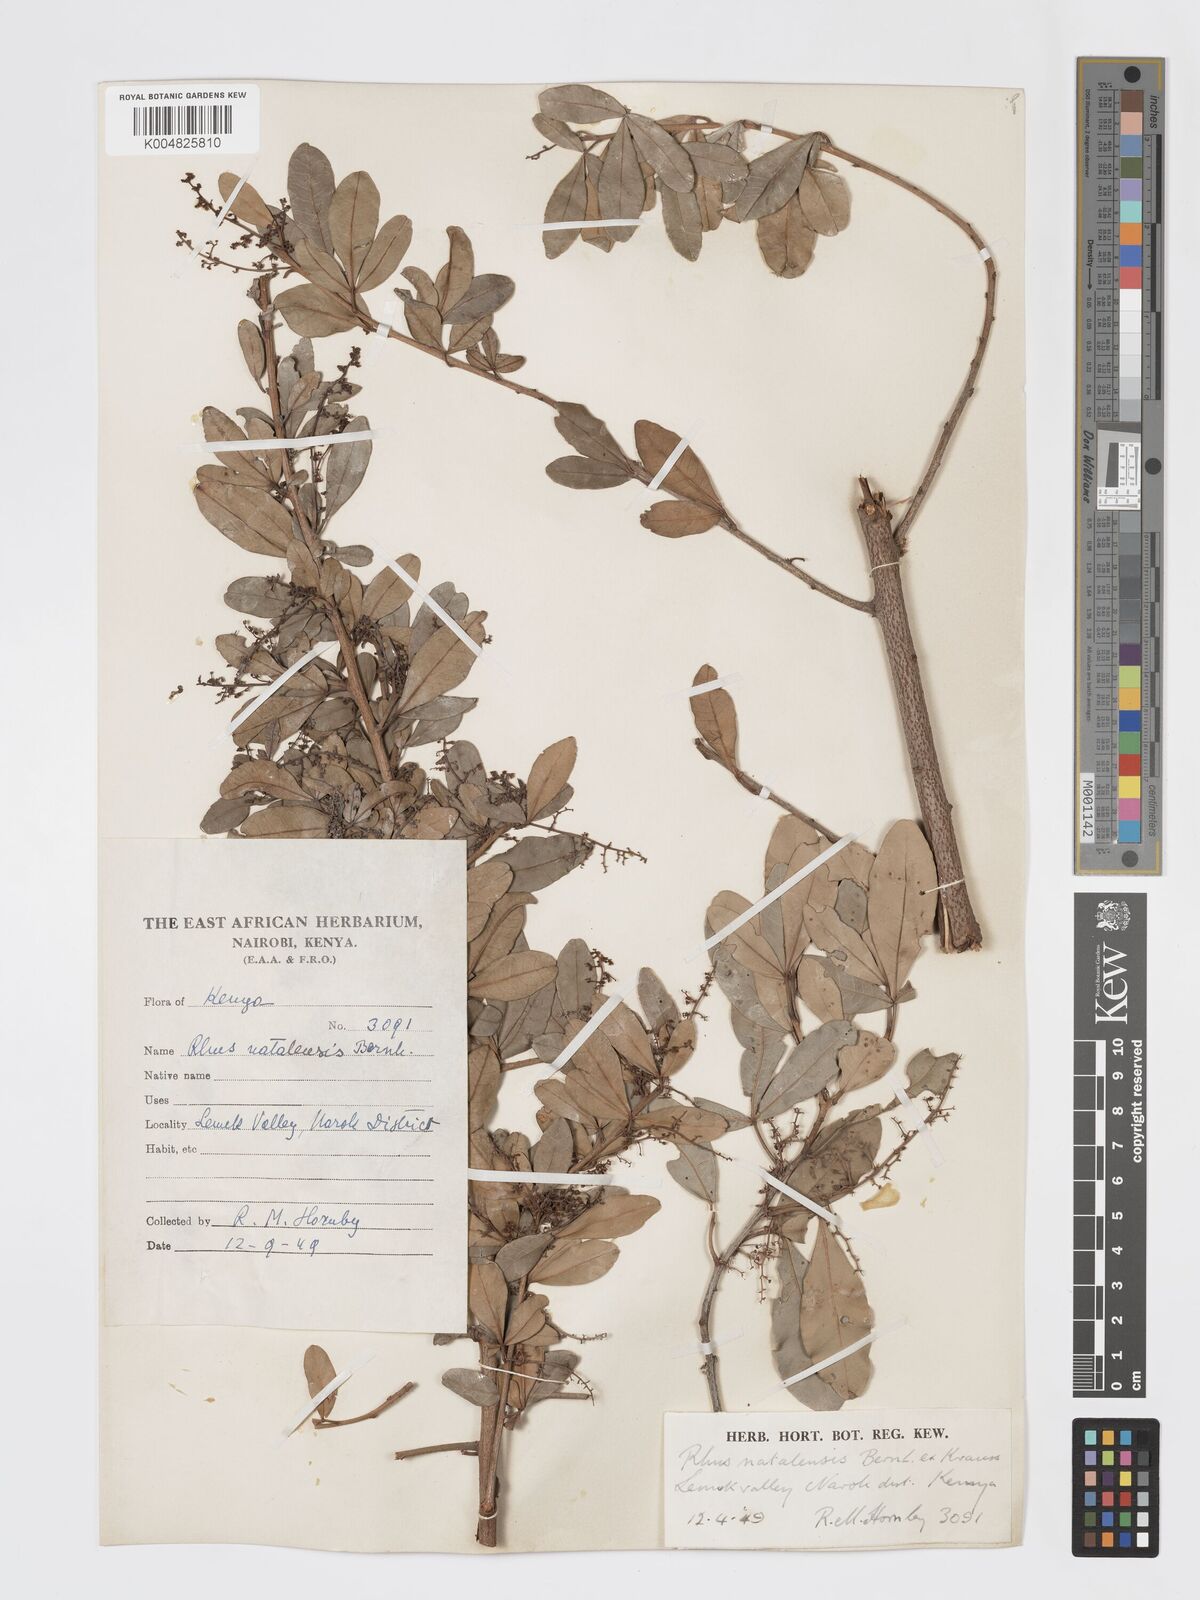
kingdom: Plantae
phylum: Tracheophyta
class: Magnoliopsida
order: Sapindales
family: Anacardiaceae
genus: Searsia
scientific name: Searsia natalensis
